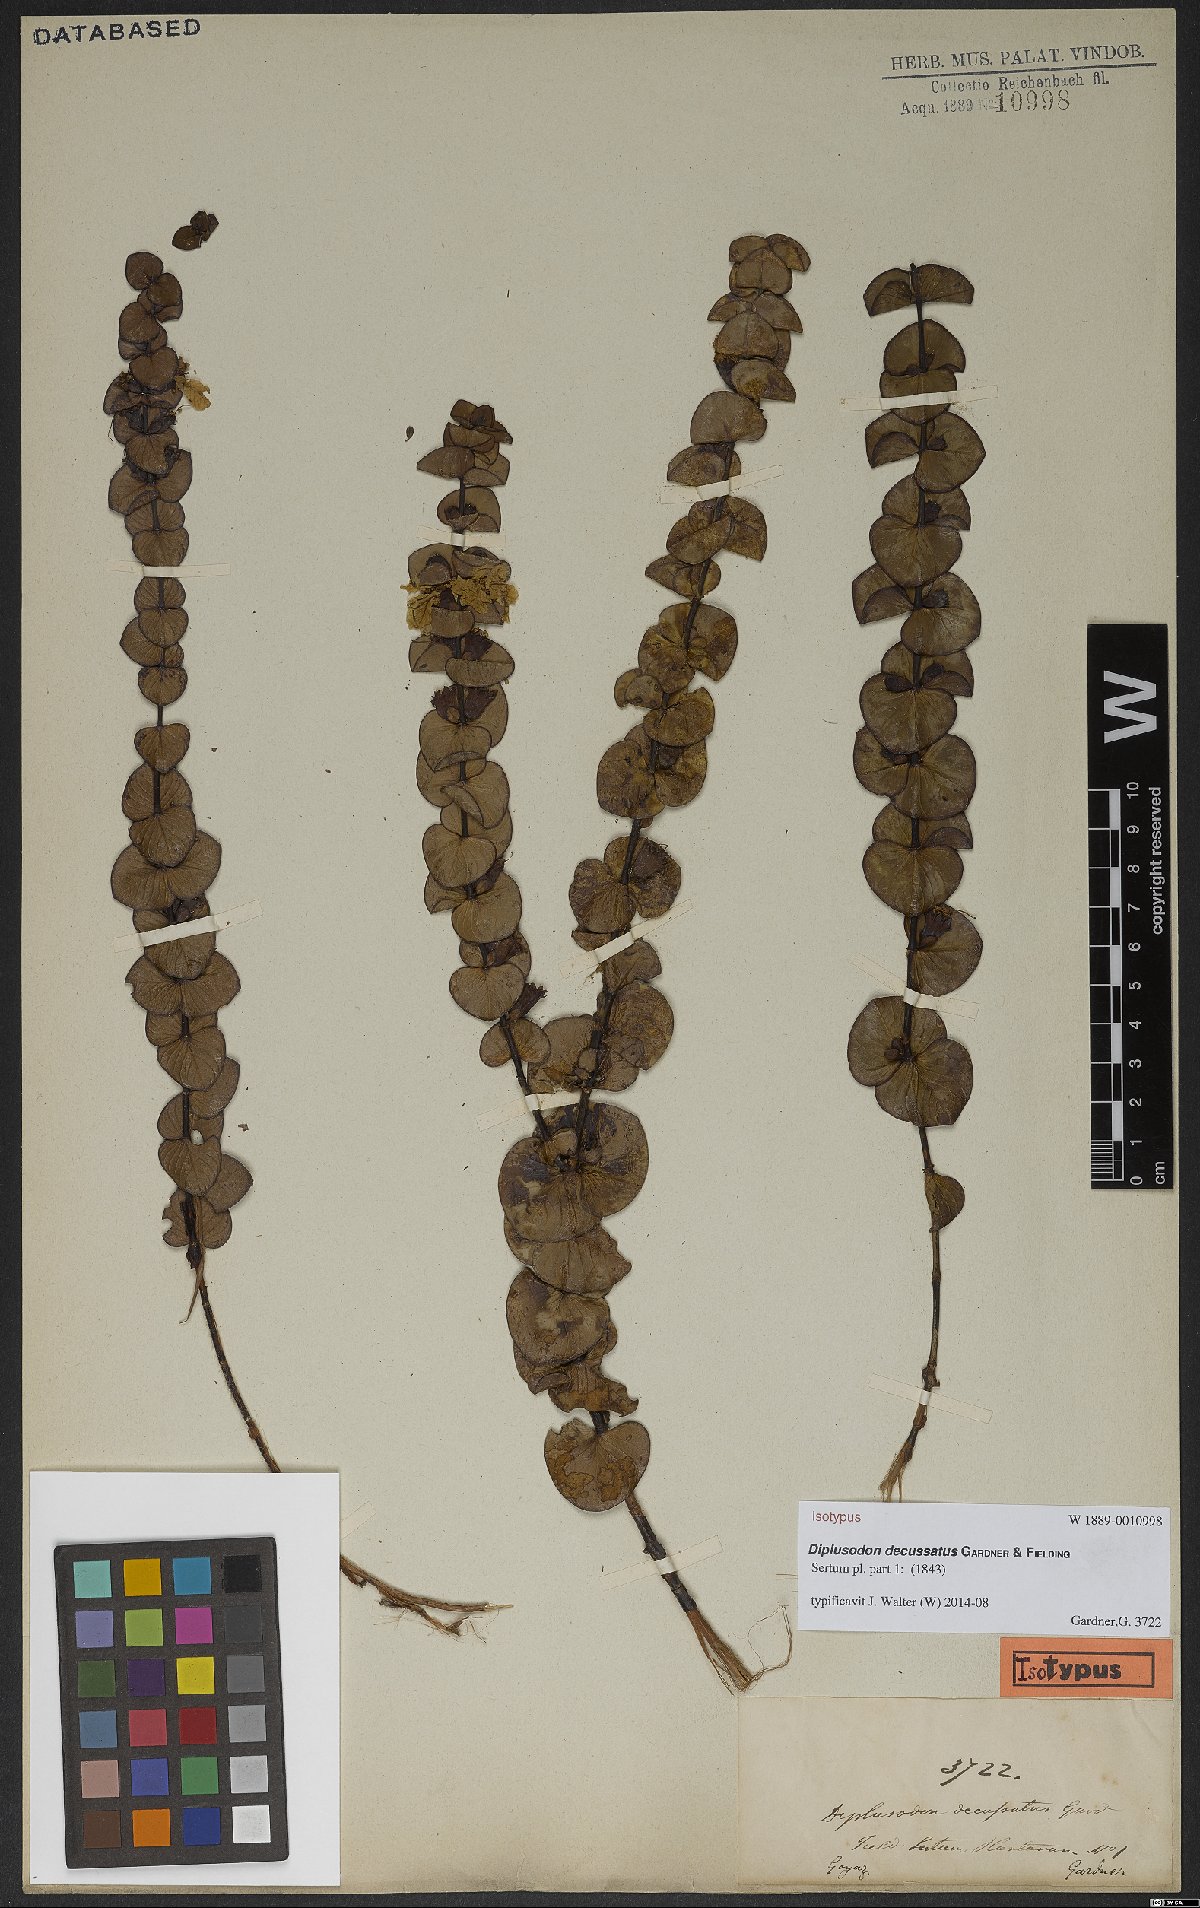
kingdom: Plantae
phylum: Tracheophyta
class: Magnoliopsida
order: Myrtales
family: Lythraceae
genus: Diplusodon
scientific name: Diplusodon decussatus
